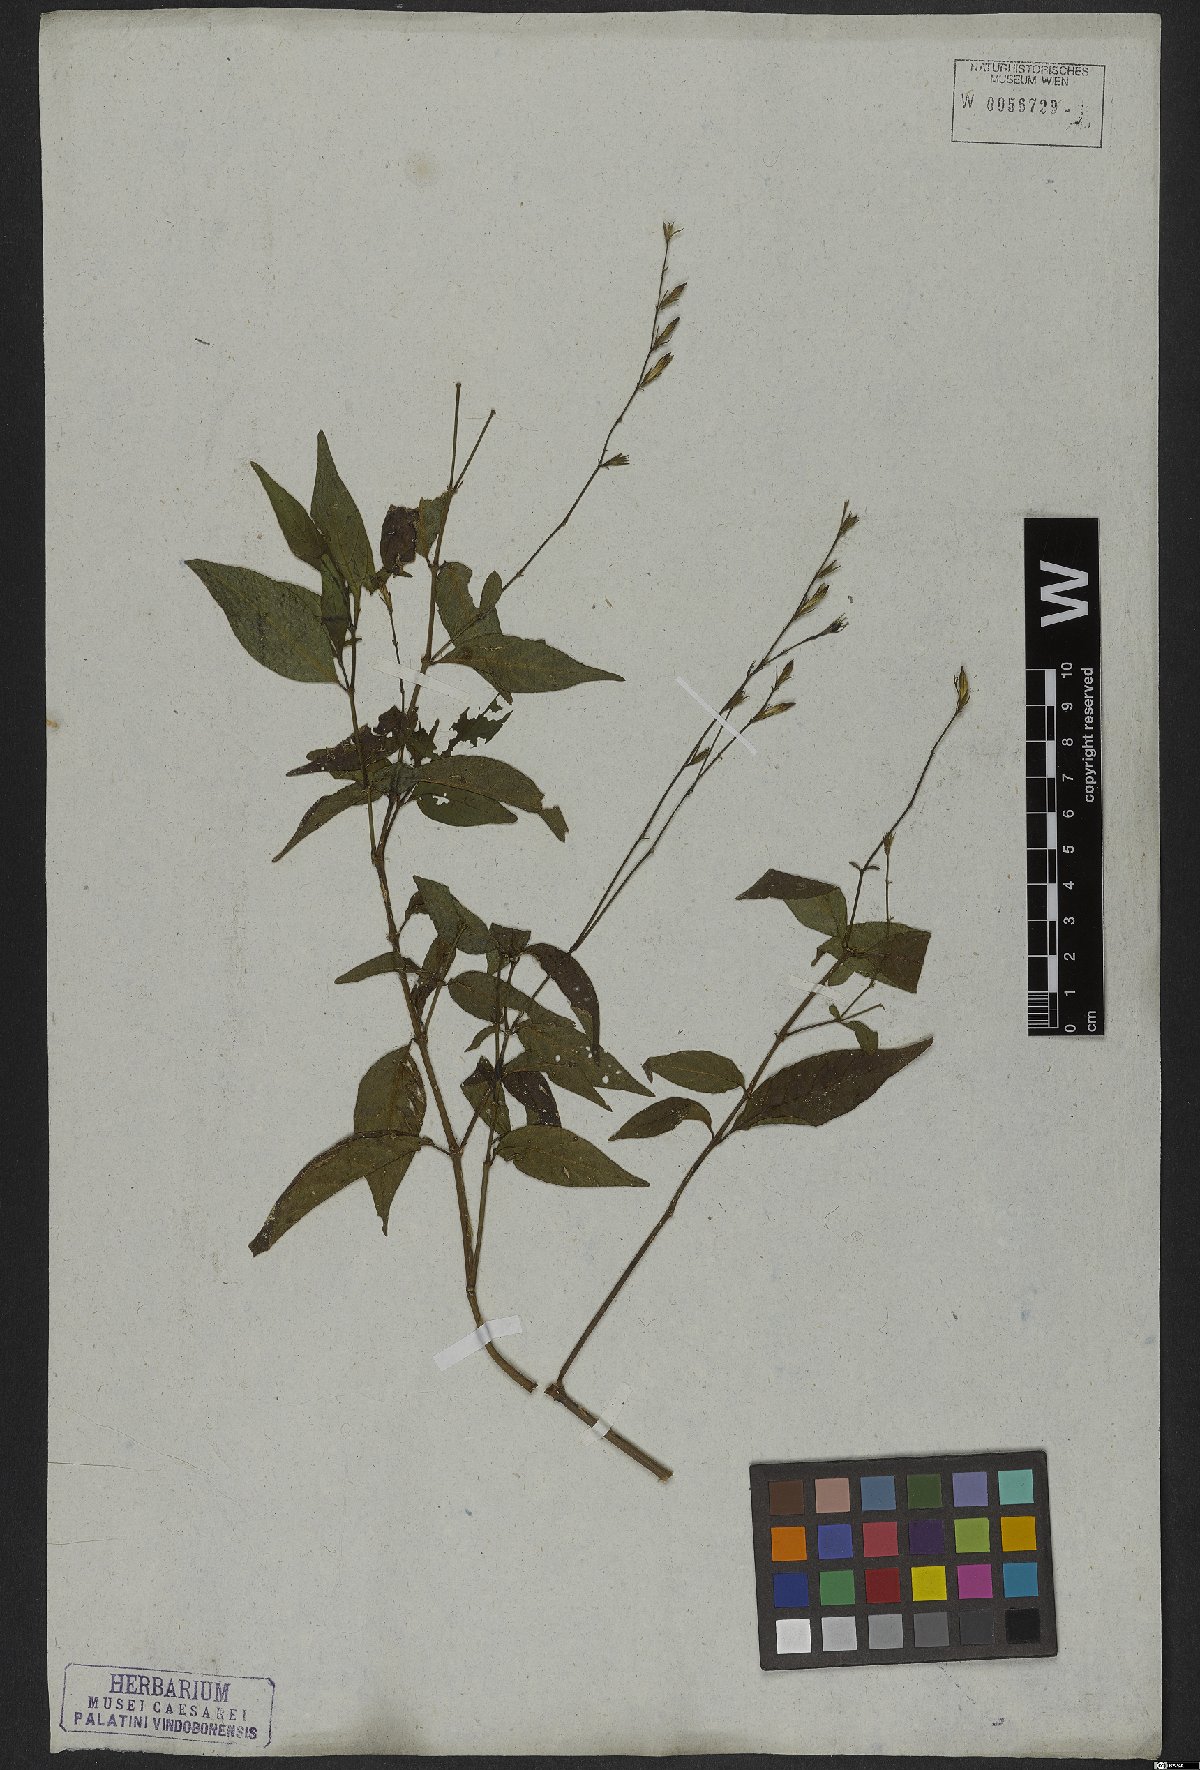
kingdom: Plantae
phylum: Tracheophyta
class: Magnoliopsida
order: Lamiales
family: Acanthaceae
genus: Justicia
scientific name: Justicia polita
